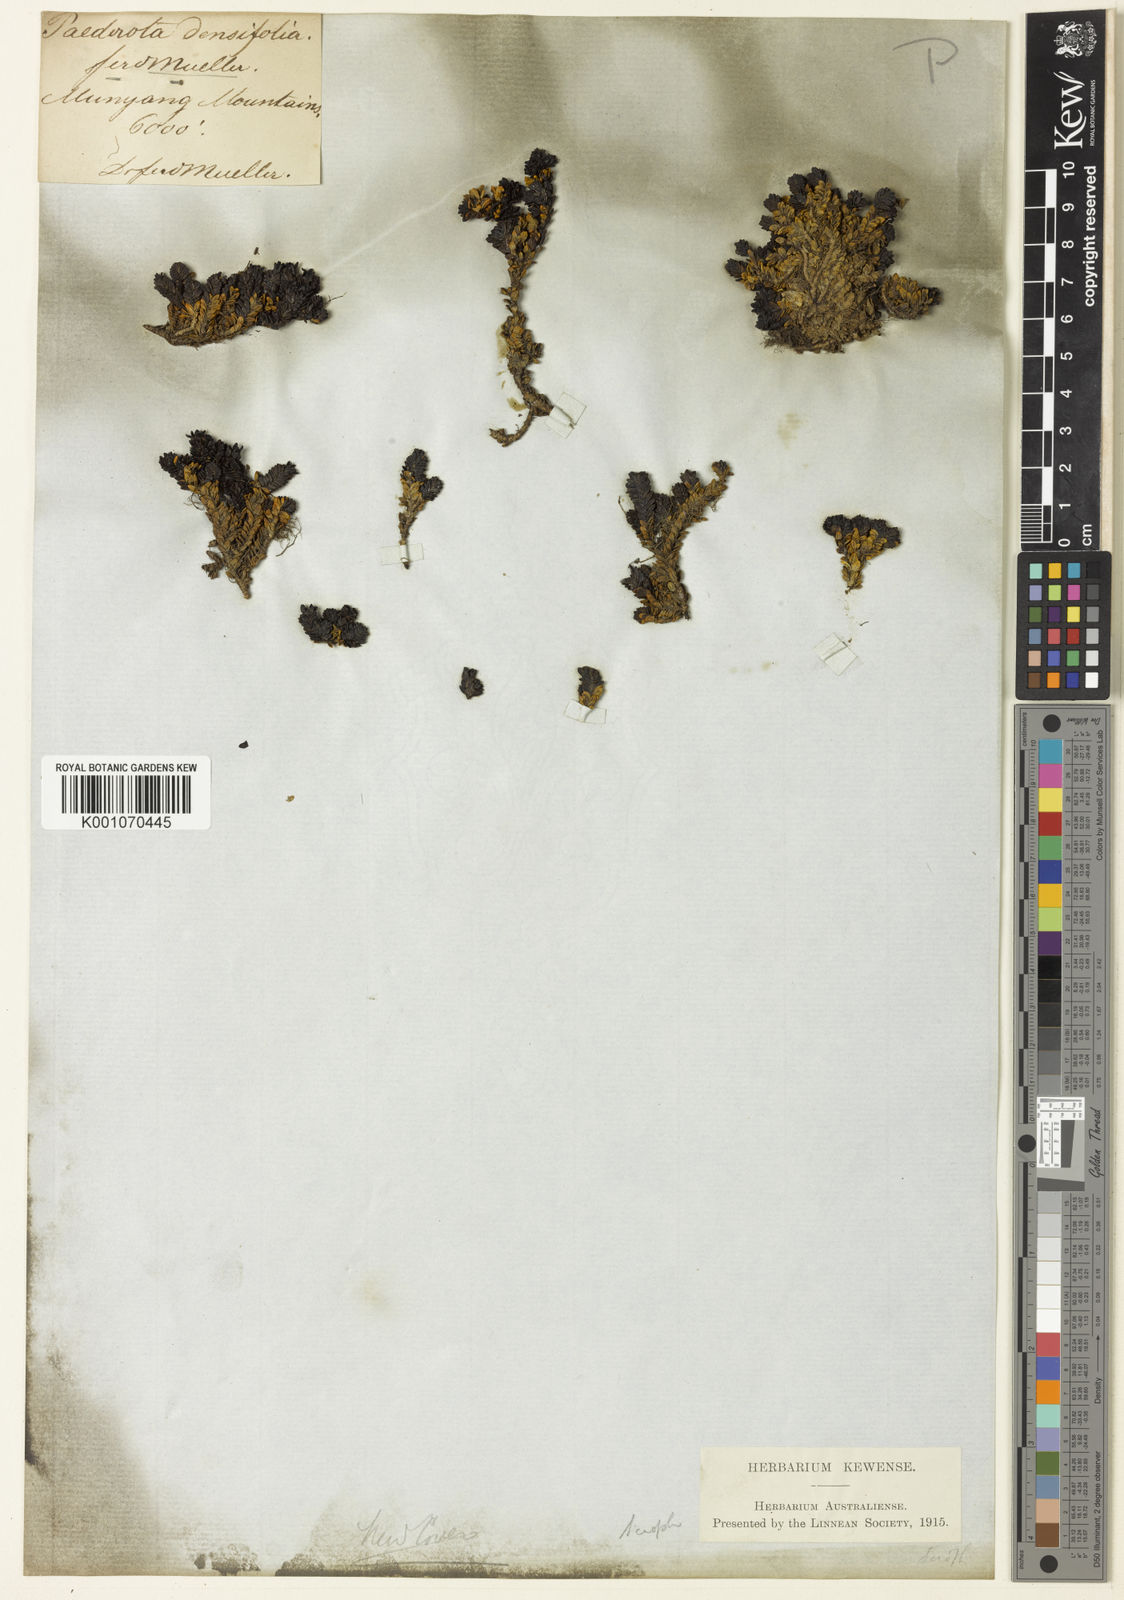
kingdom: Plantae
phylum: Tracheophyta
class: Magnoliopsida
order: Lamiales
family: Plantaginaceae
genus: Veronica
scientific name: Veronica
